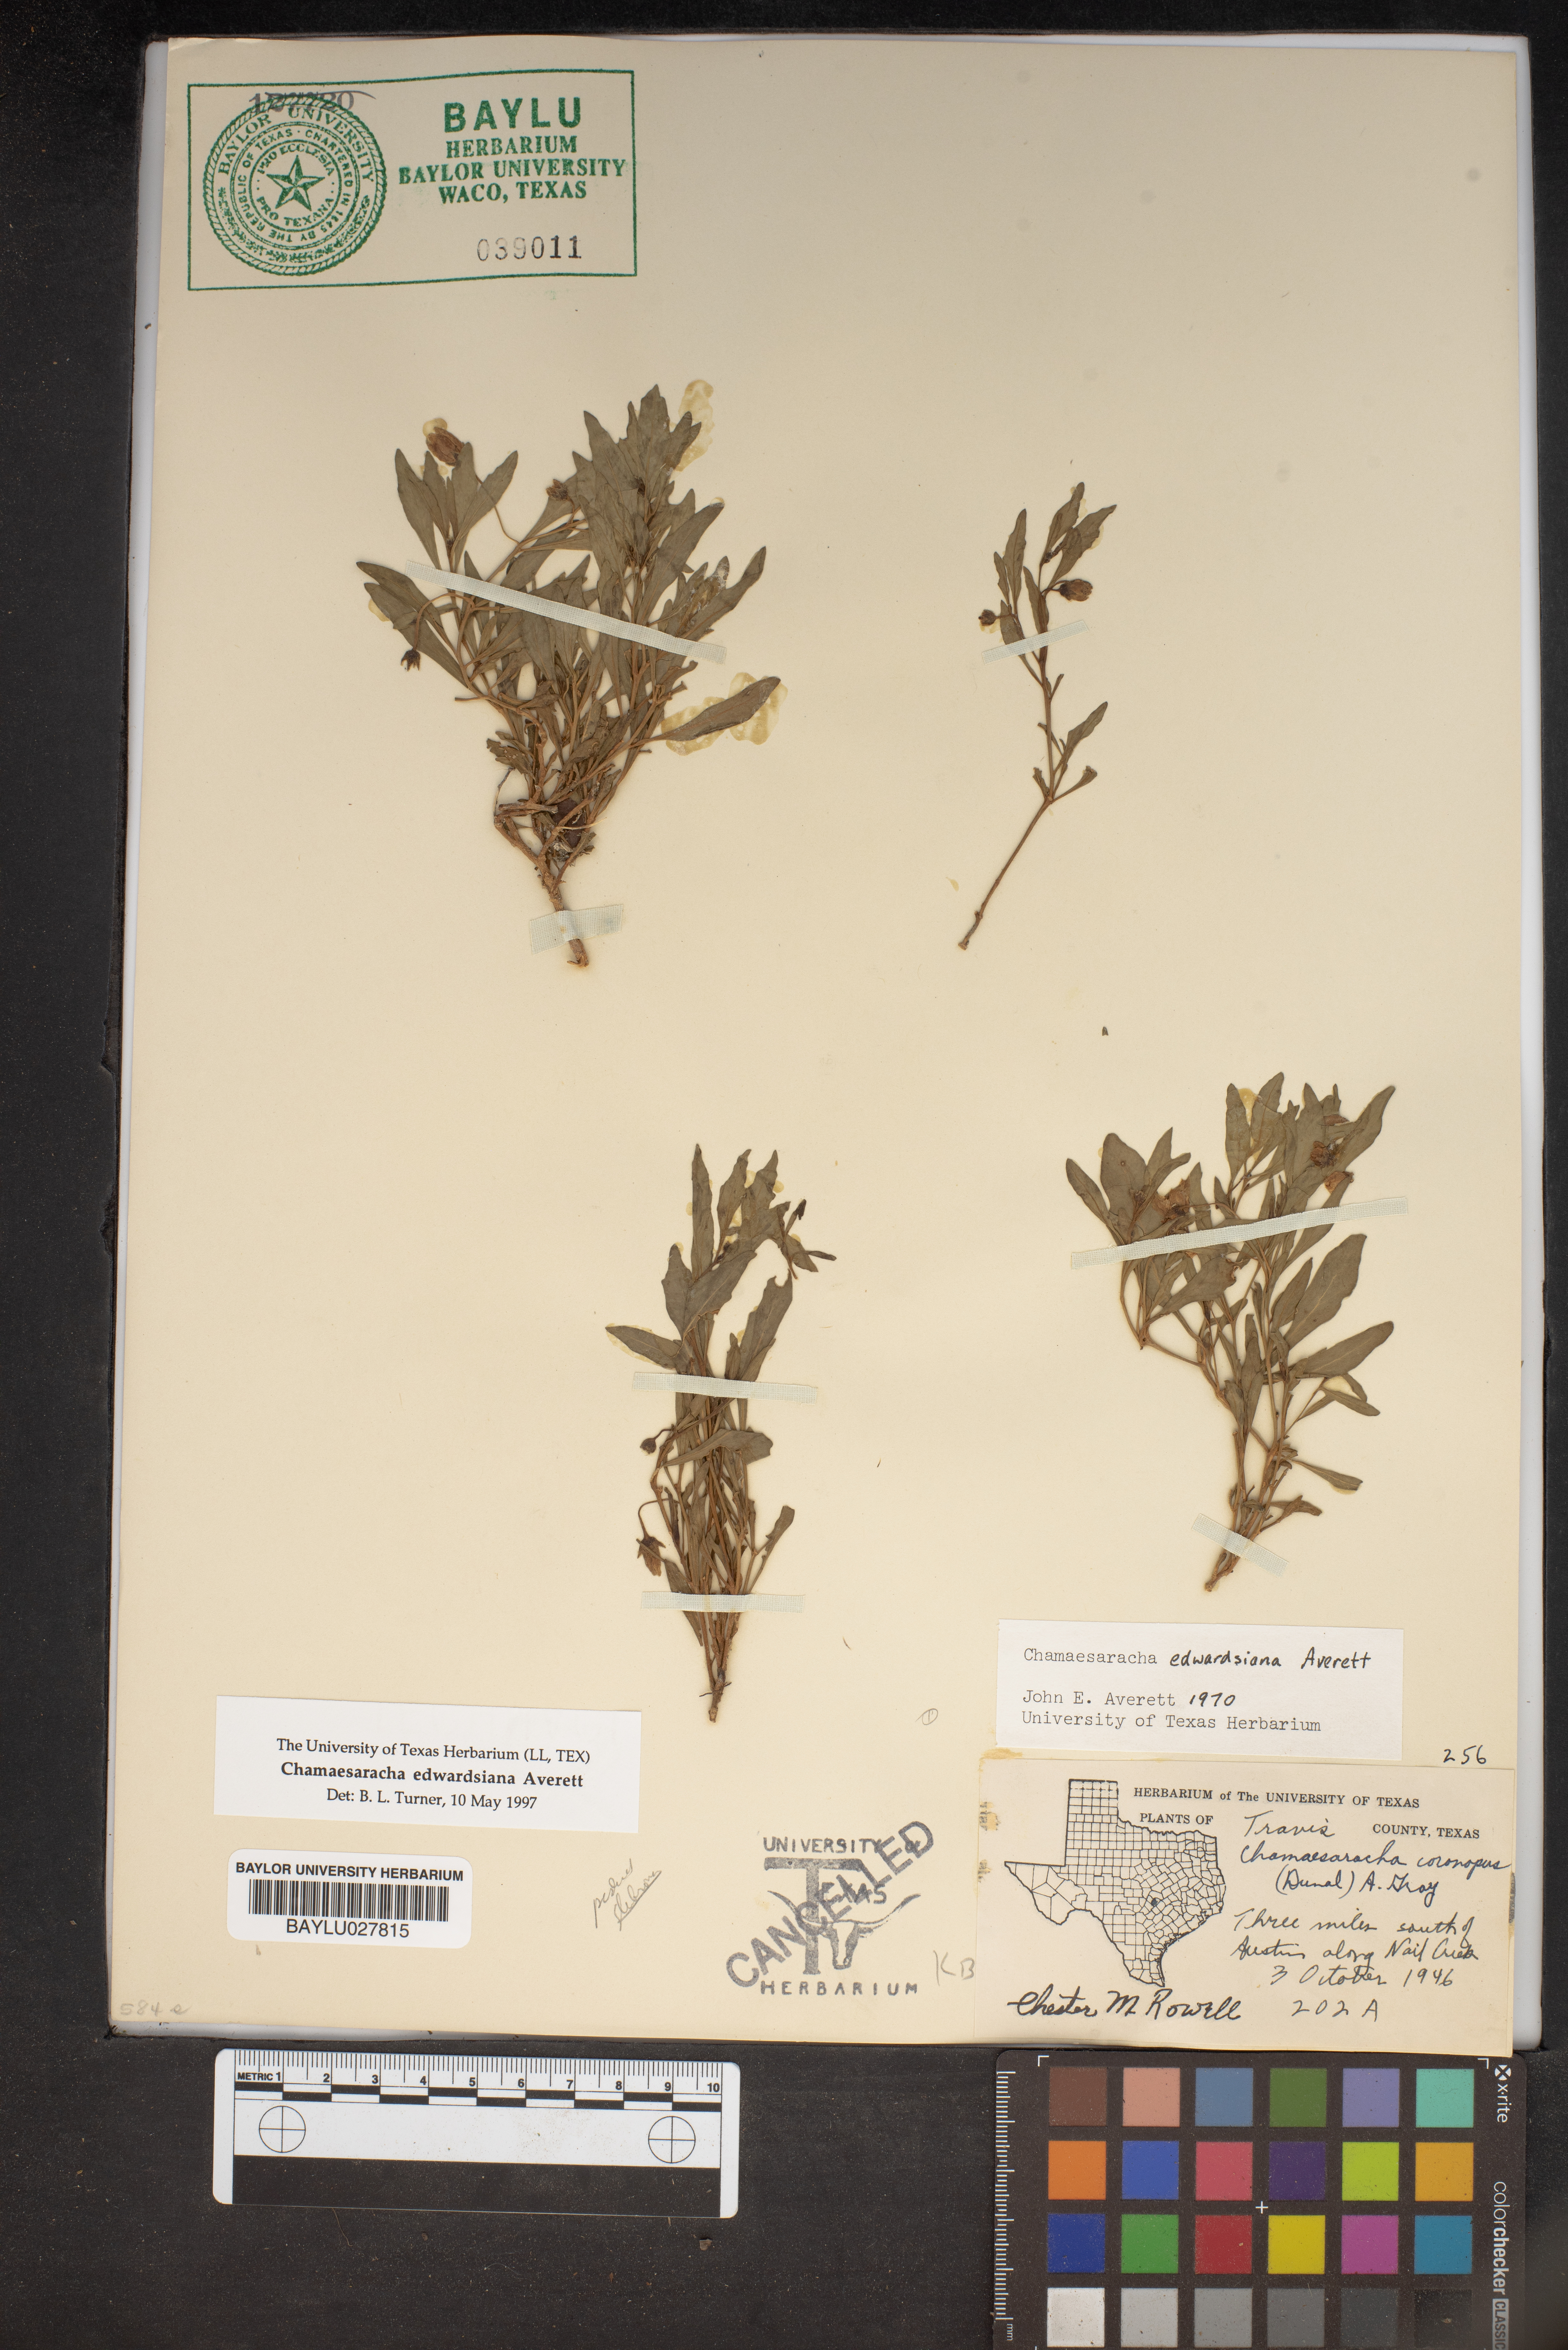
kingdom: Plantae
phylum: Tracheophyta
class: Magnoliopsida
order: Solanales
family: Solanaceae
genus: Chamaesaracha
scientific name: Chamaesaracha edwardsiana
